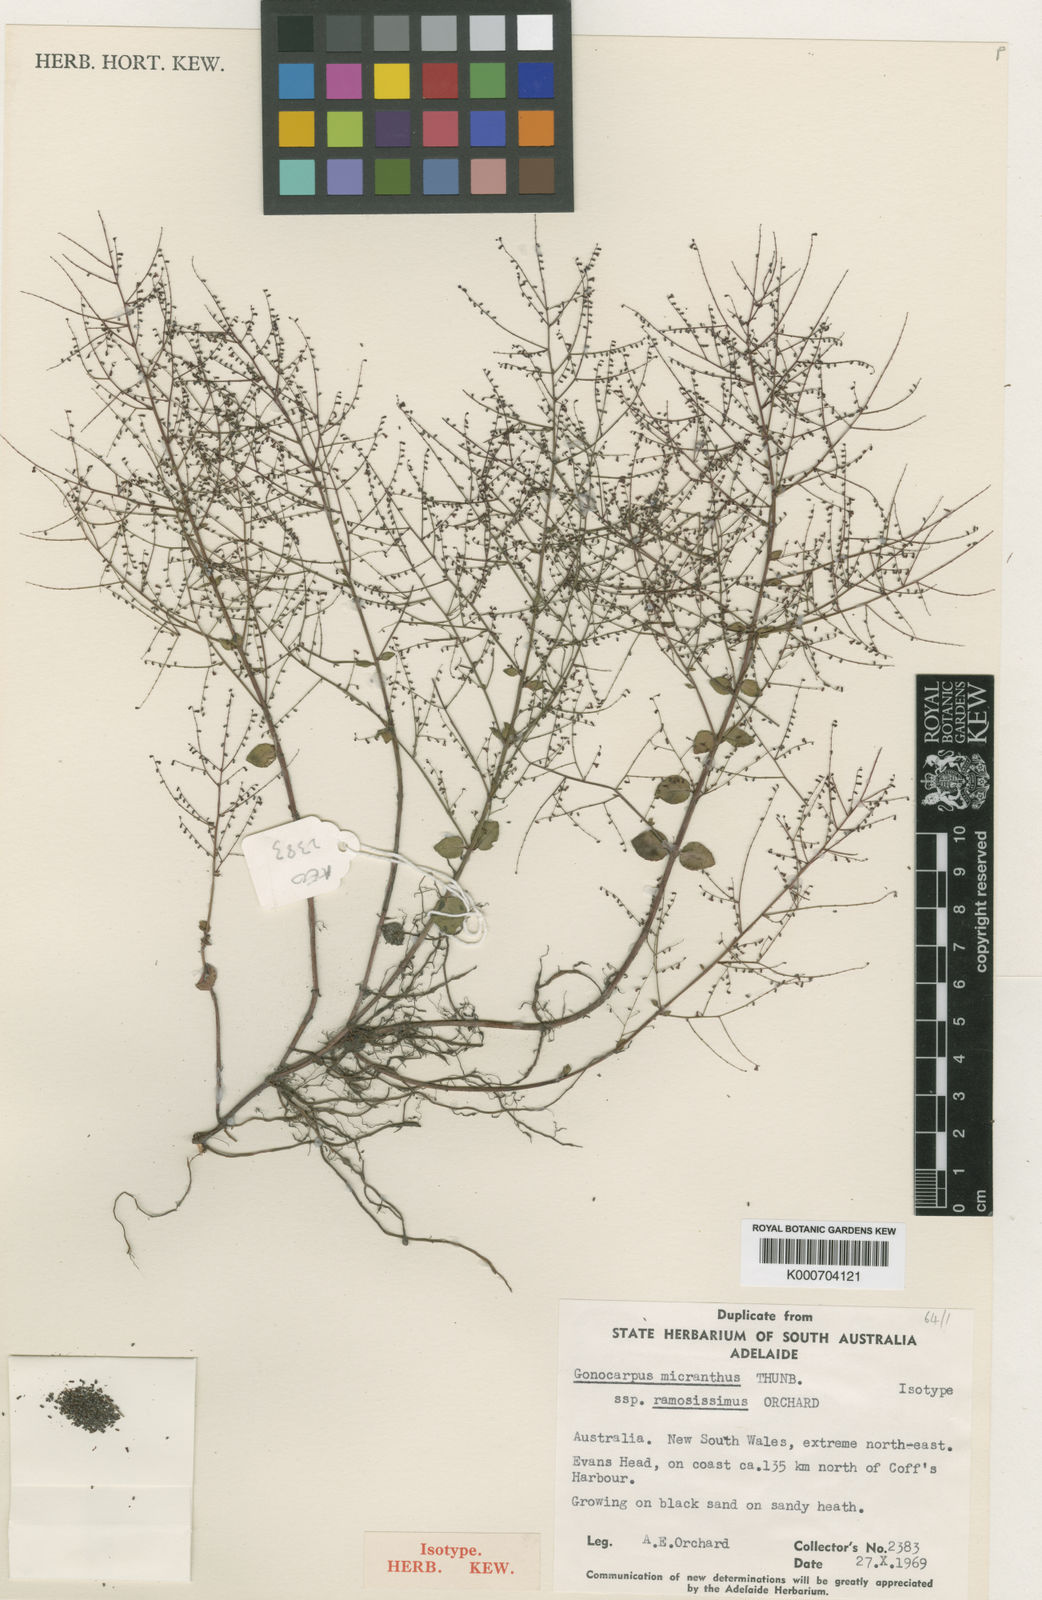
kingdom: Plantae
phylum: Tracheophyta
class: Magnoliopsida
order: Saxifragales
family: Haloragaceae
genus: Gonocarpus
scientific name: Gonocarpus micranthus
